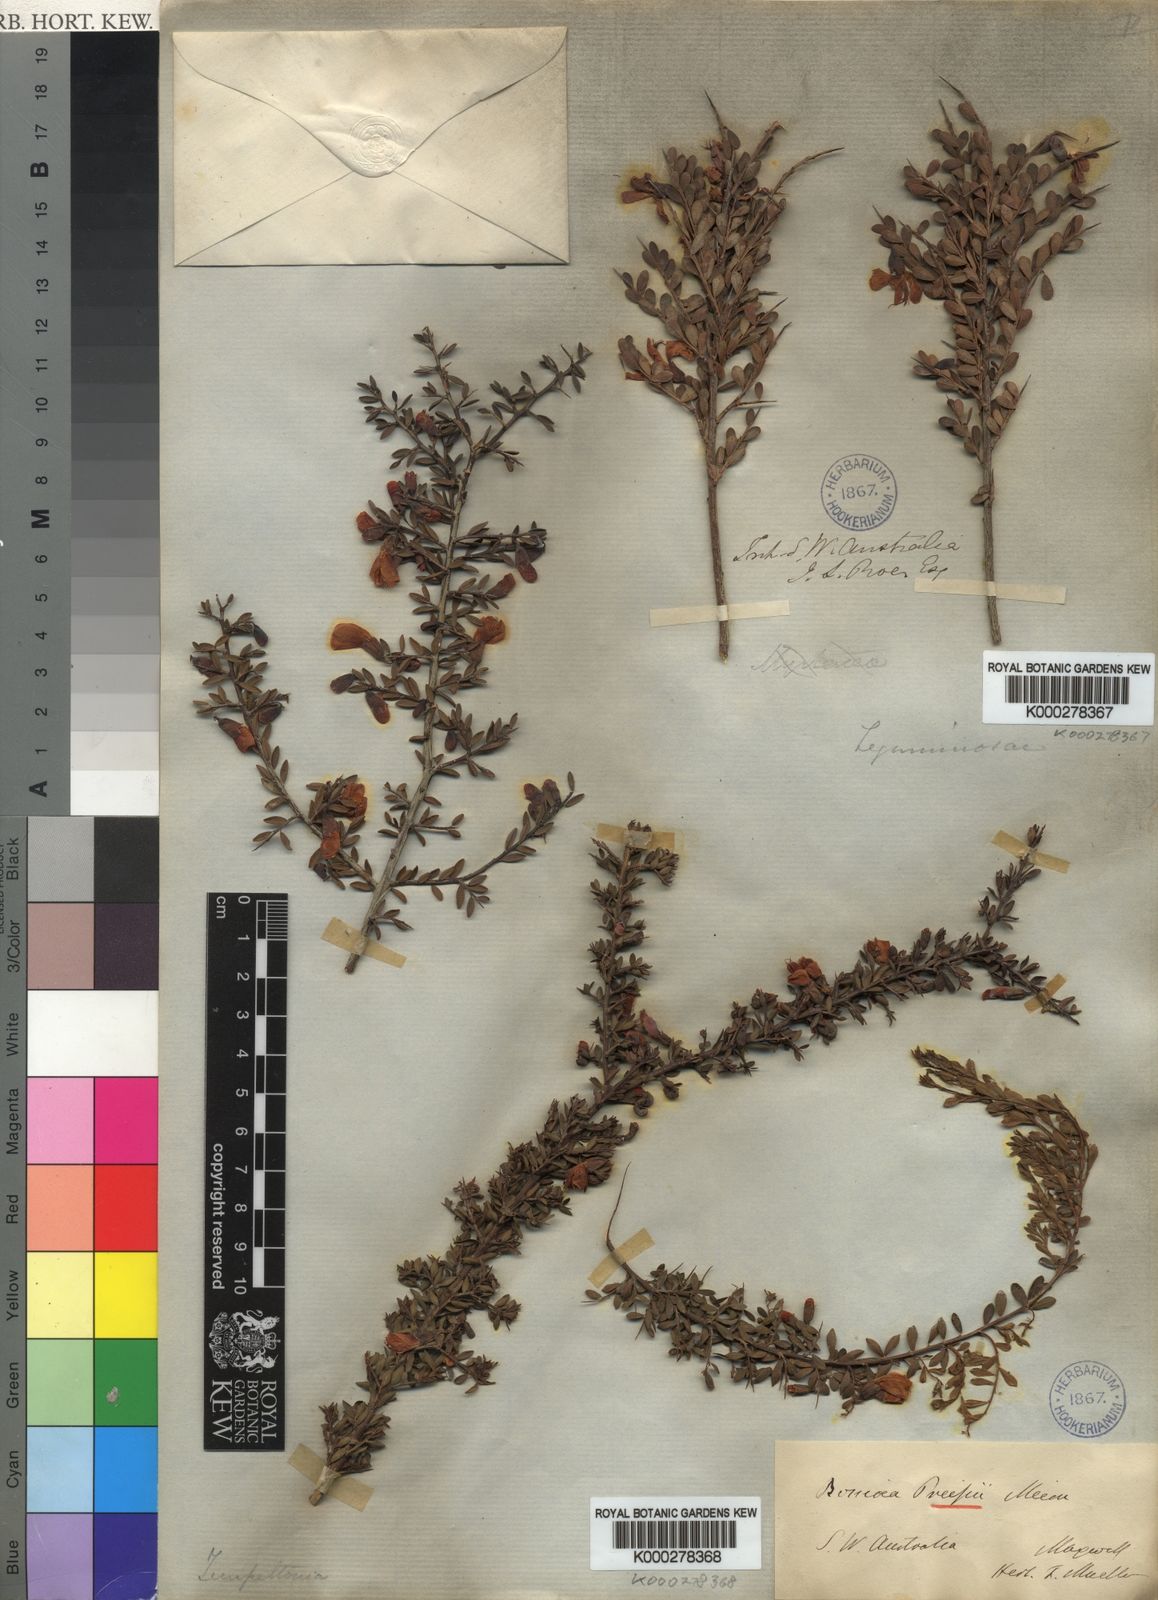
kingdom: Plantae
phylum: Tracheophyta
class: Magnoliopsida
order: Fabales
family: Fabaceae
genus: Bossiaea
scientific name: Bossiaea preissii
